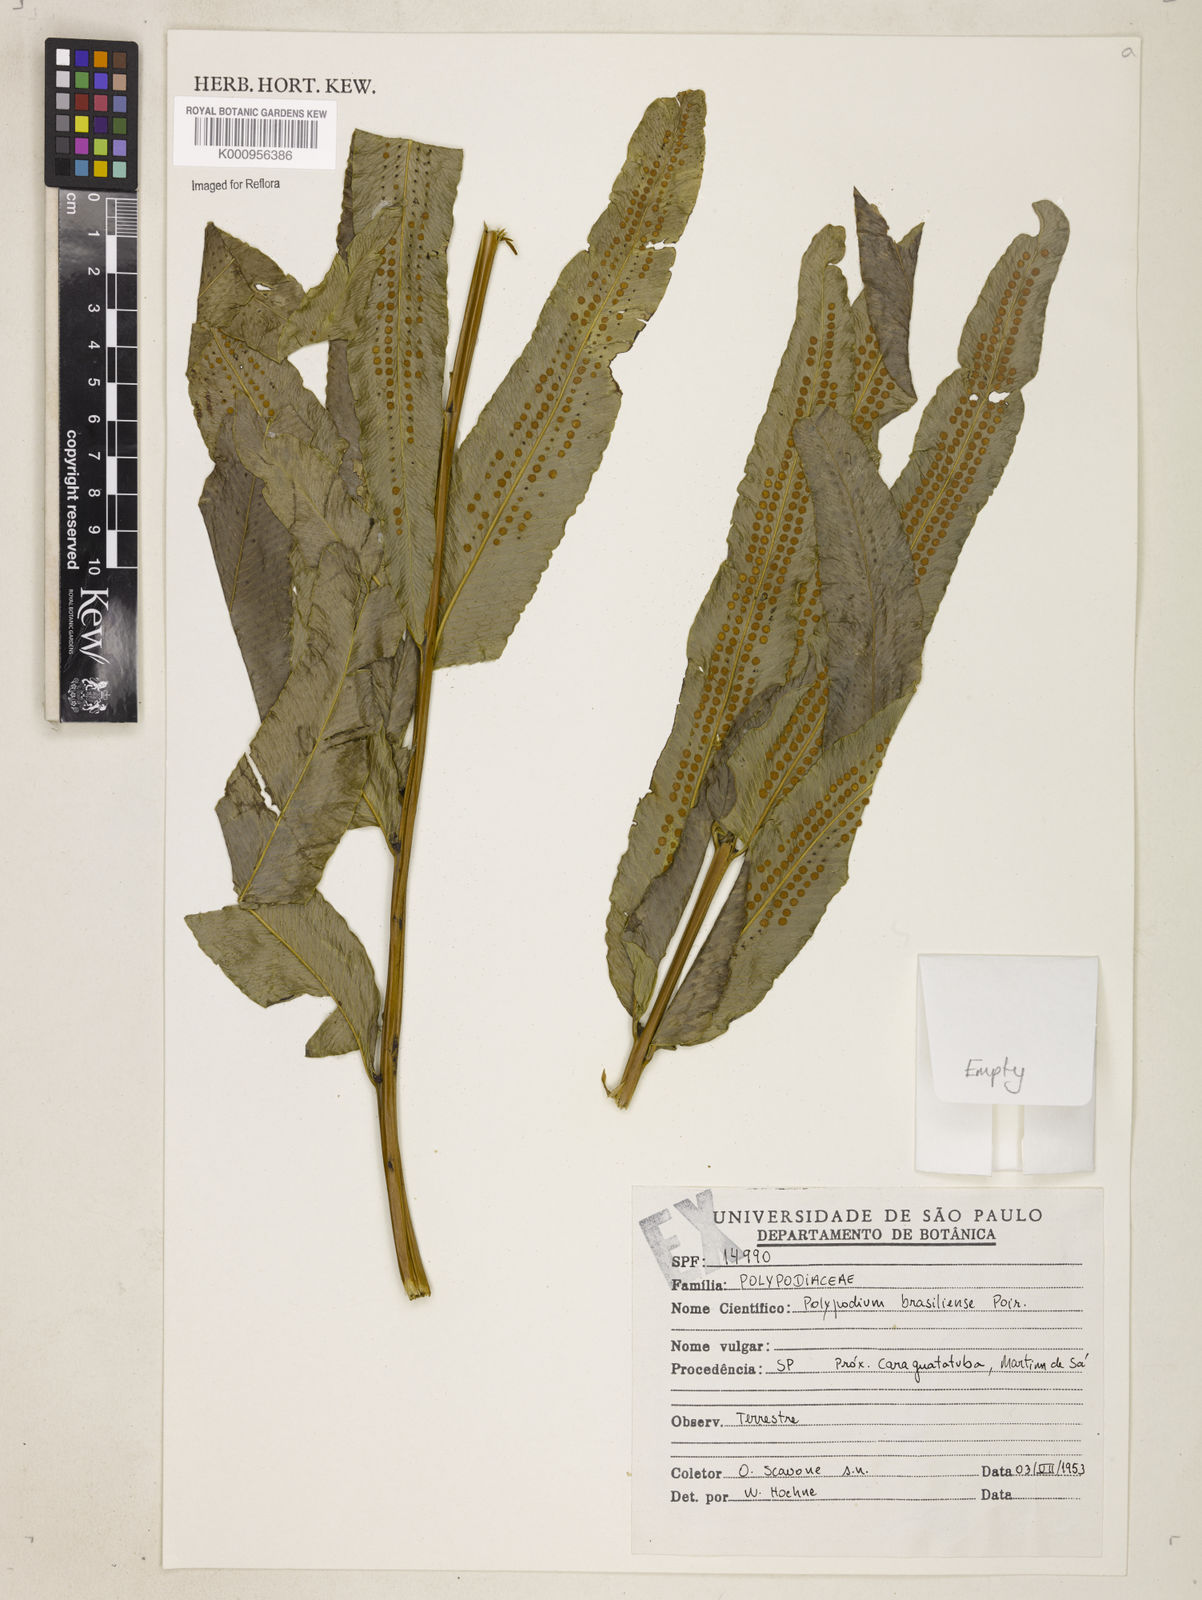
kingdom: Plantae
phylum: Tracheophyta
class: Polypodiopsida
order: Polypodiales
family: Polypodiaceae
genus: Serpocaulon
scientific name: Serpocaulon triseriale
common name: Angle-vein fern
